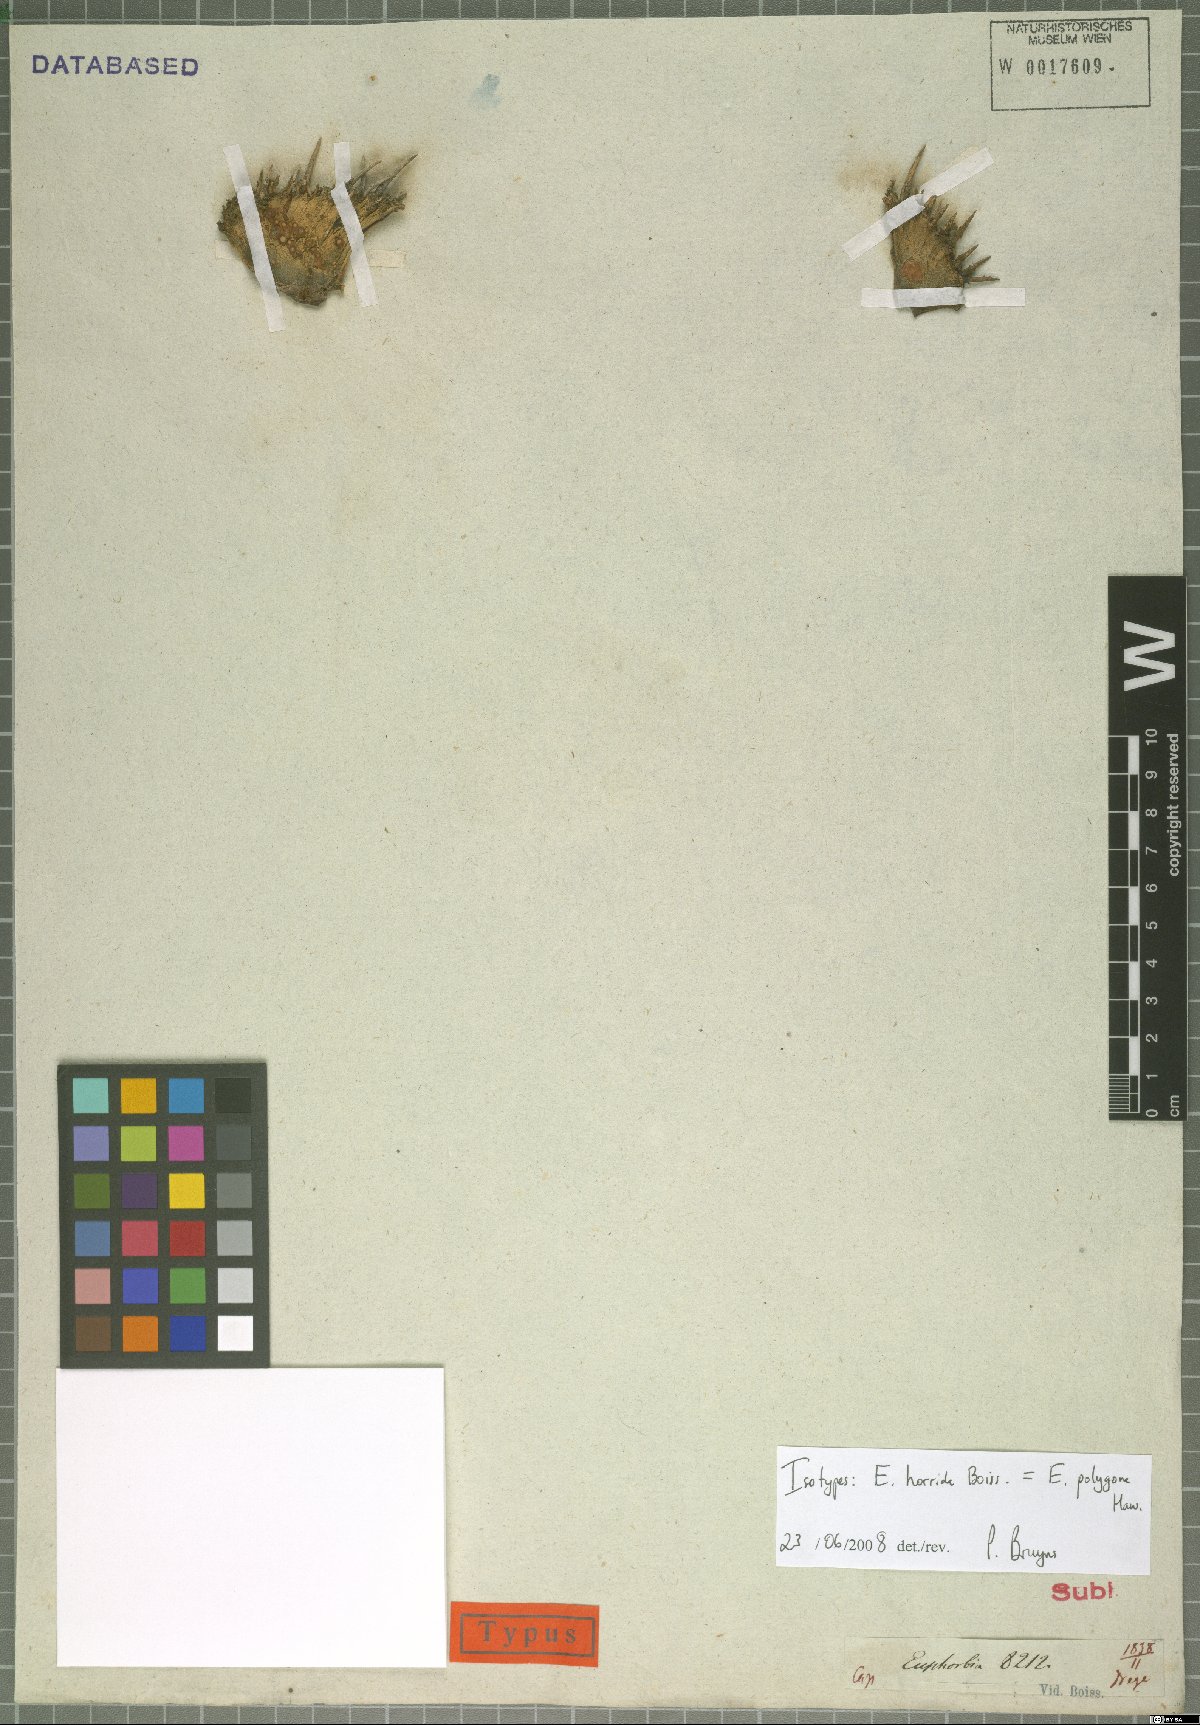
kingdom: Plantae
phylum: Tracheophyta
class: Magnoliopsida
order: Malpighiales
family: Euphorbiaceae
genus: Euphorbia
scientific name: Euphorbia polygona
